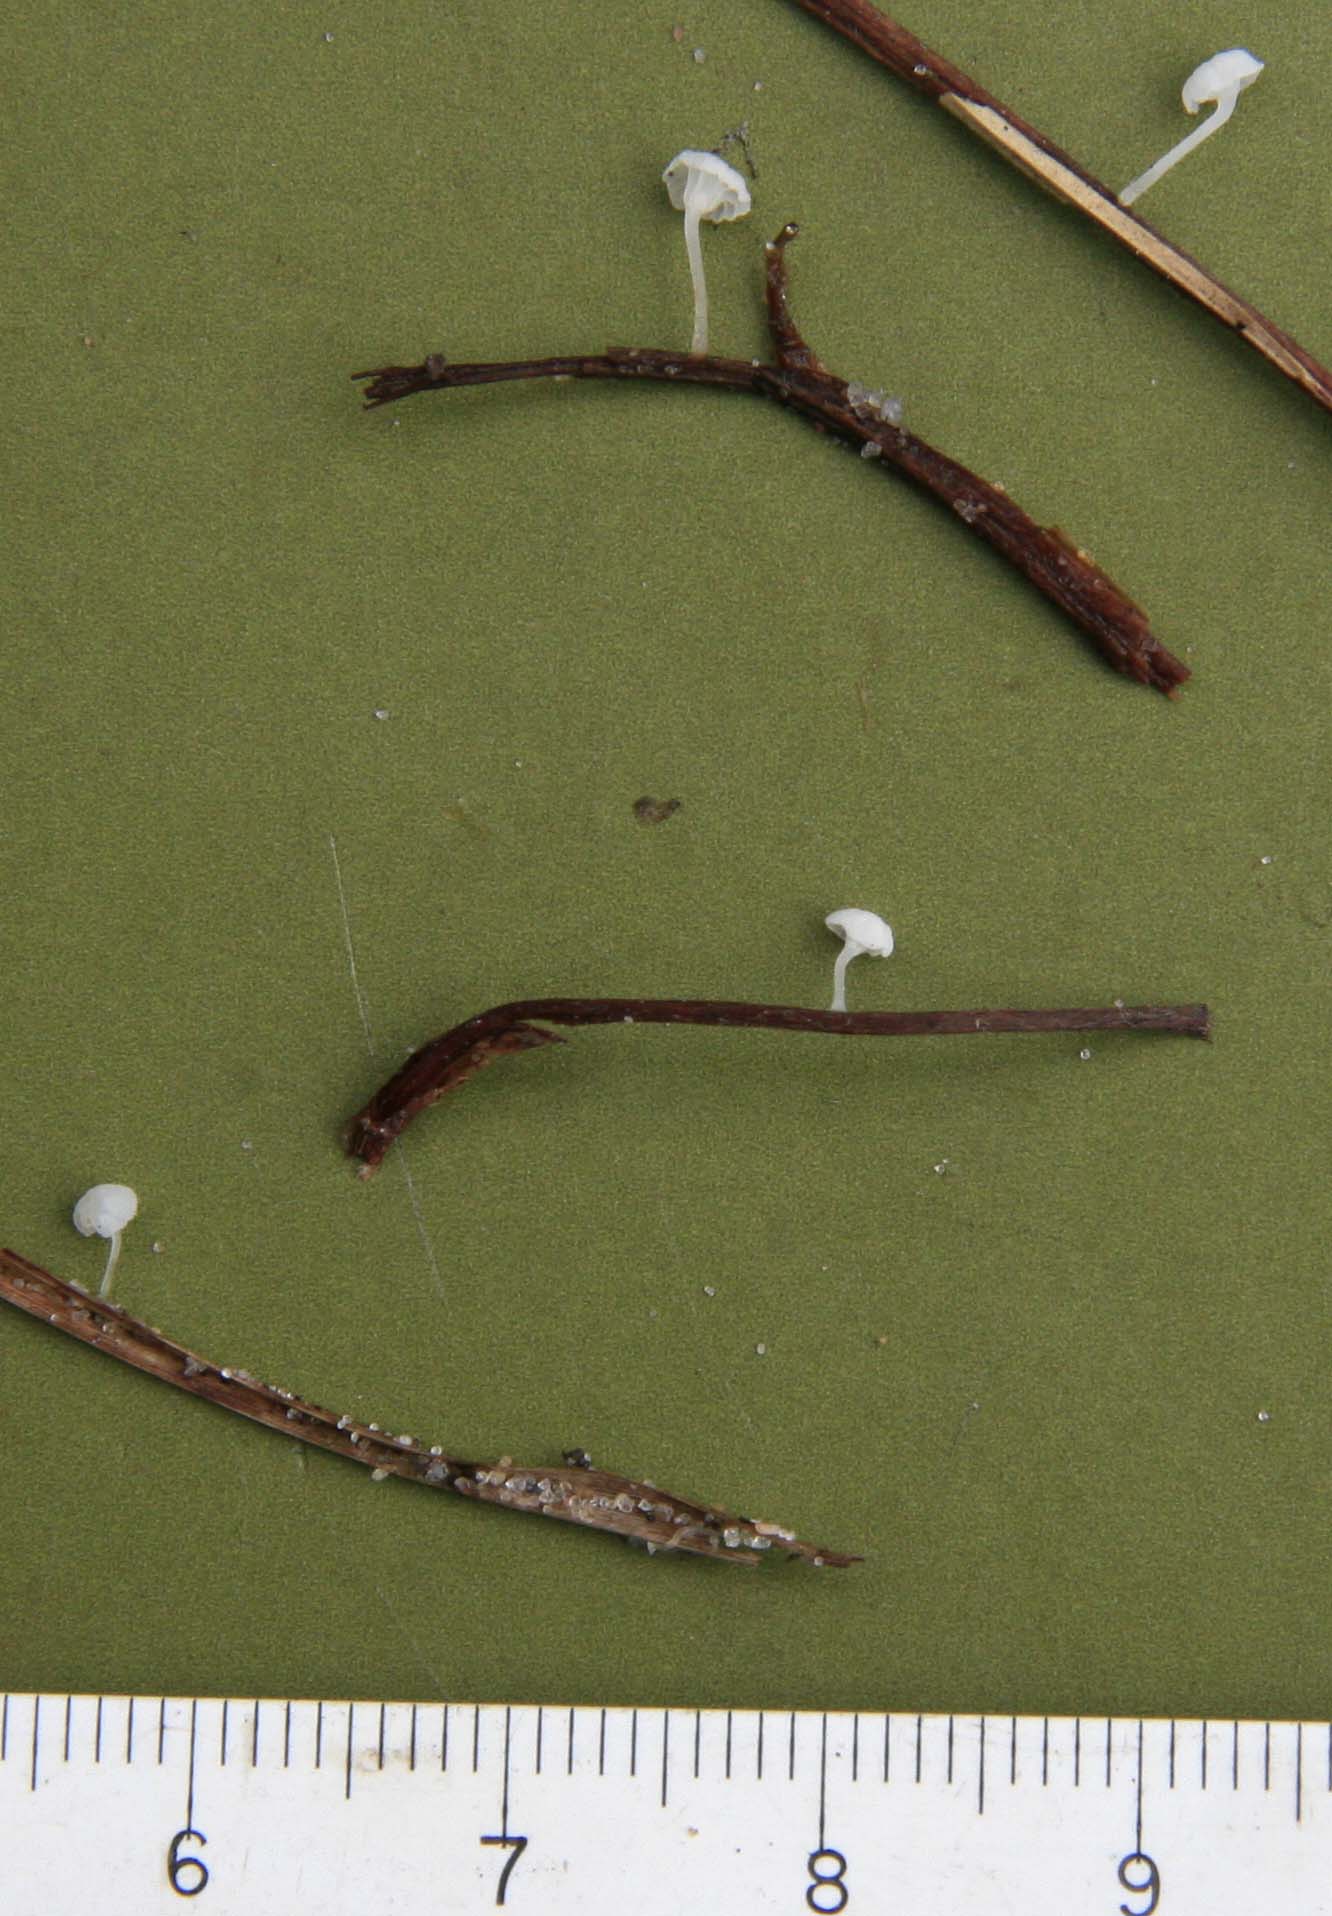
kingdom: Fungi
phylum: Basidiomycota
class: Agaricomycetes
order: Agaricales
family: Mycenaceae
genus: Hemimycena
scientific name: Hemimycena hirsuta
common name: håret huesvamp
